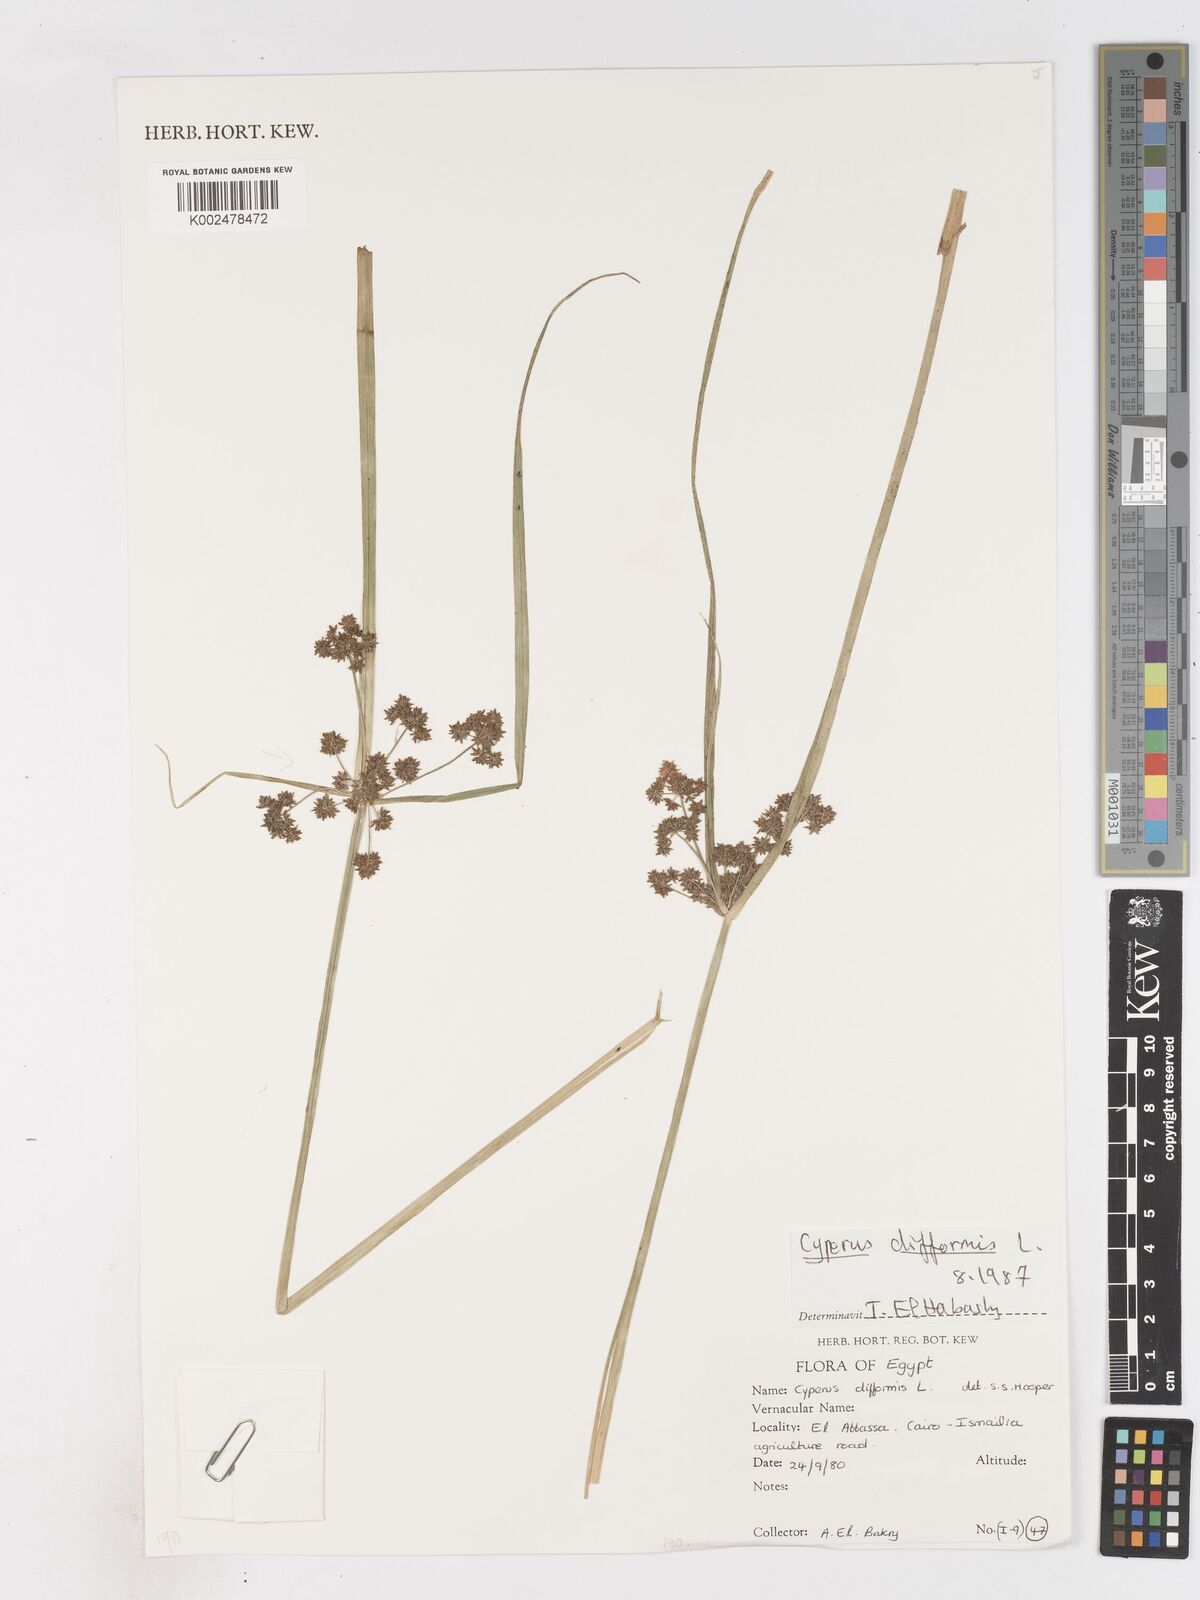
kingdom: Plantae
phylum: Tracheophyta
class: Liliopsida
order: Poales
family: Cyperaceae
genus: Cyperus
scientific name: Cyperus difformis
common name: Variable flatsedge
